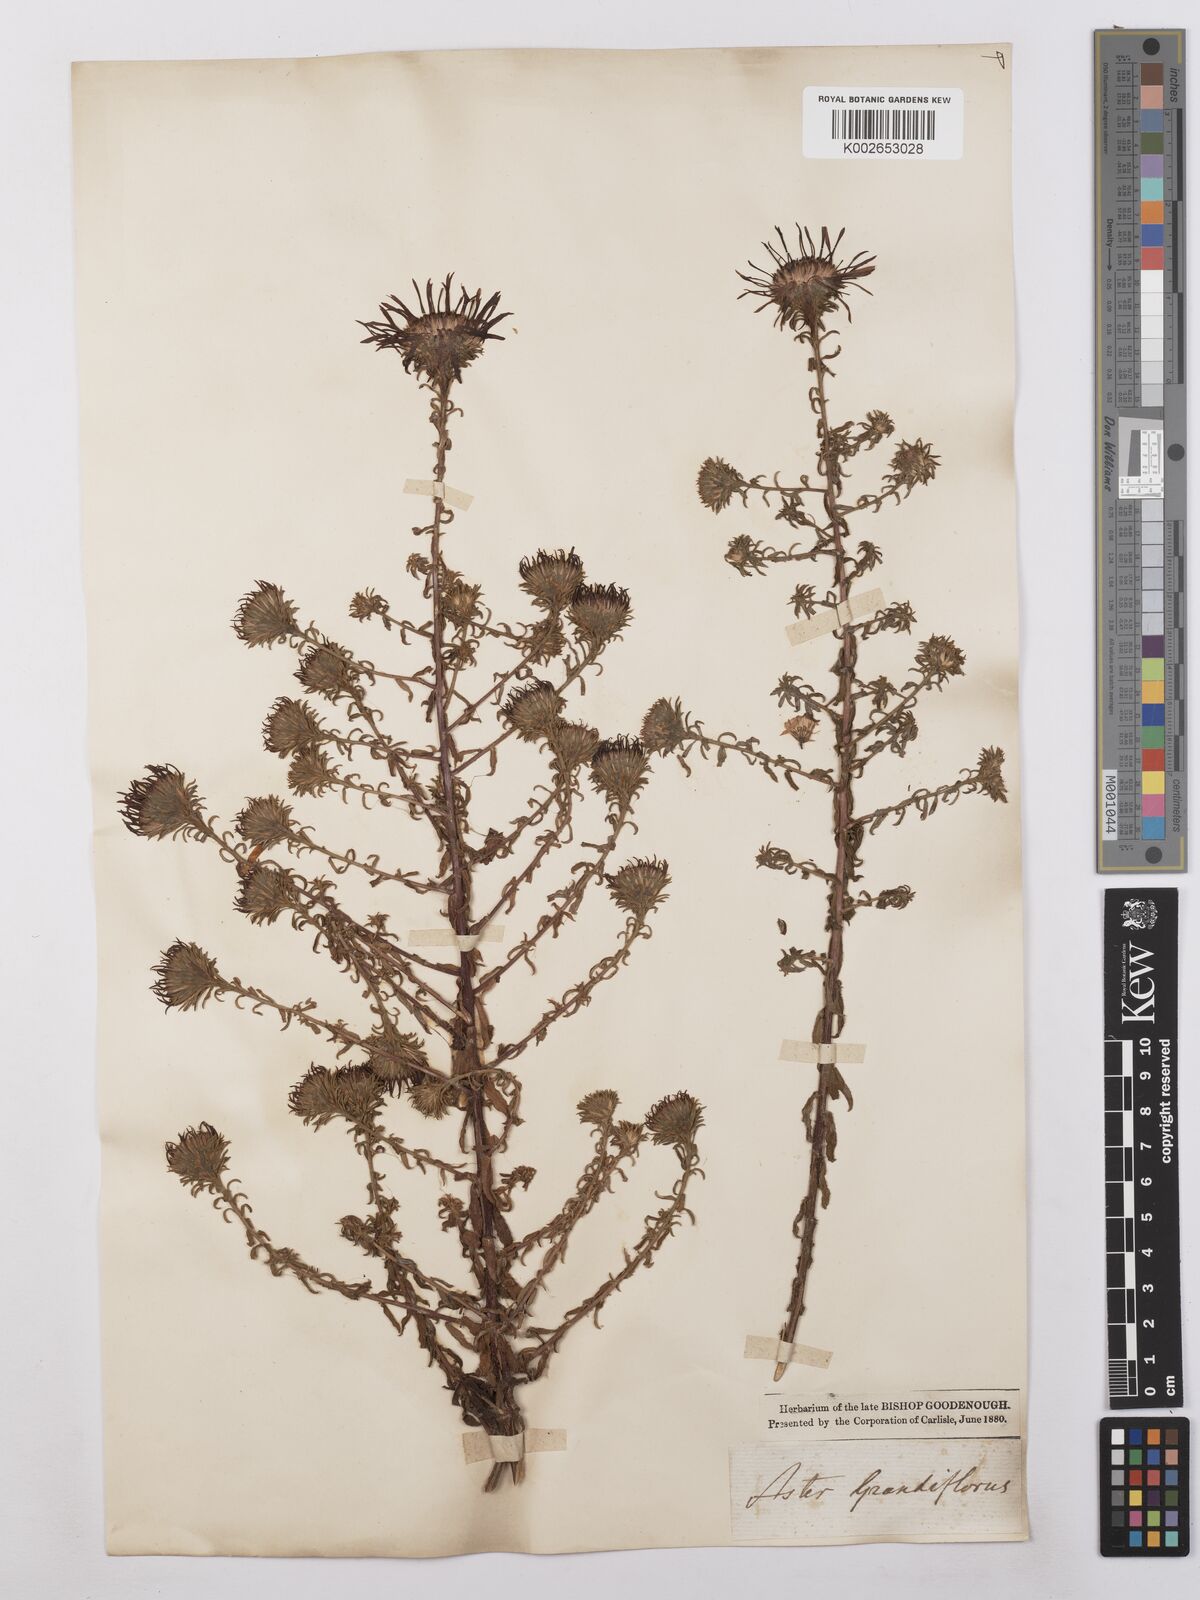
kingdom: Plantae
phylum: Tracheophyta
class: Magnoliopsida
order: Asterales
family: Asteraceae
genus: Symphyotrichum
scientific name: Symphyotrichum grandiflorum
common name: Big-head aster
